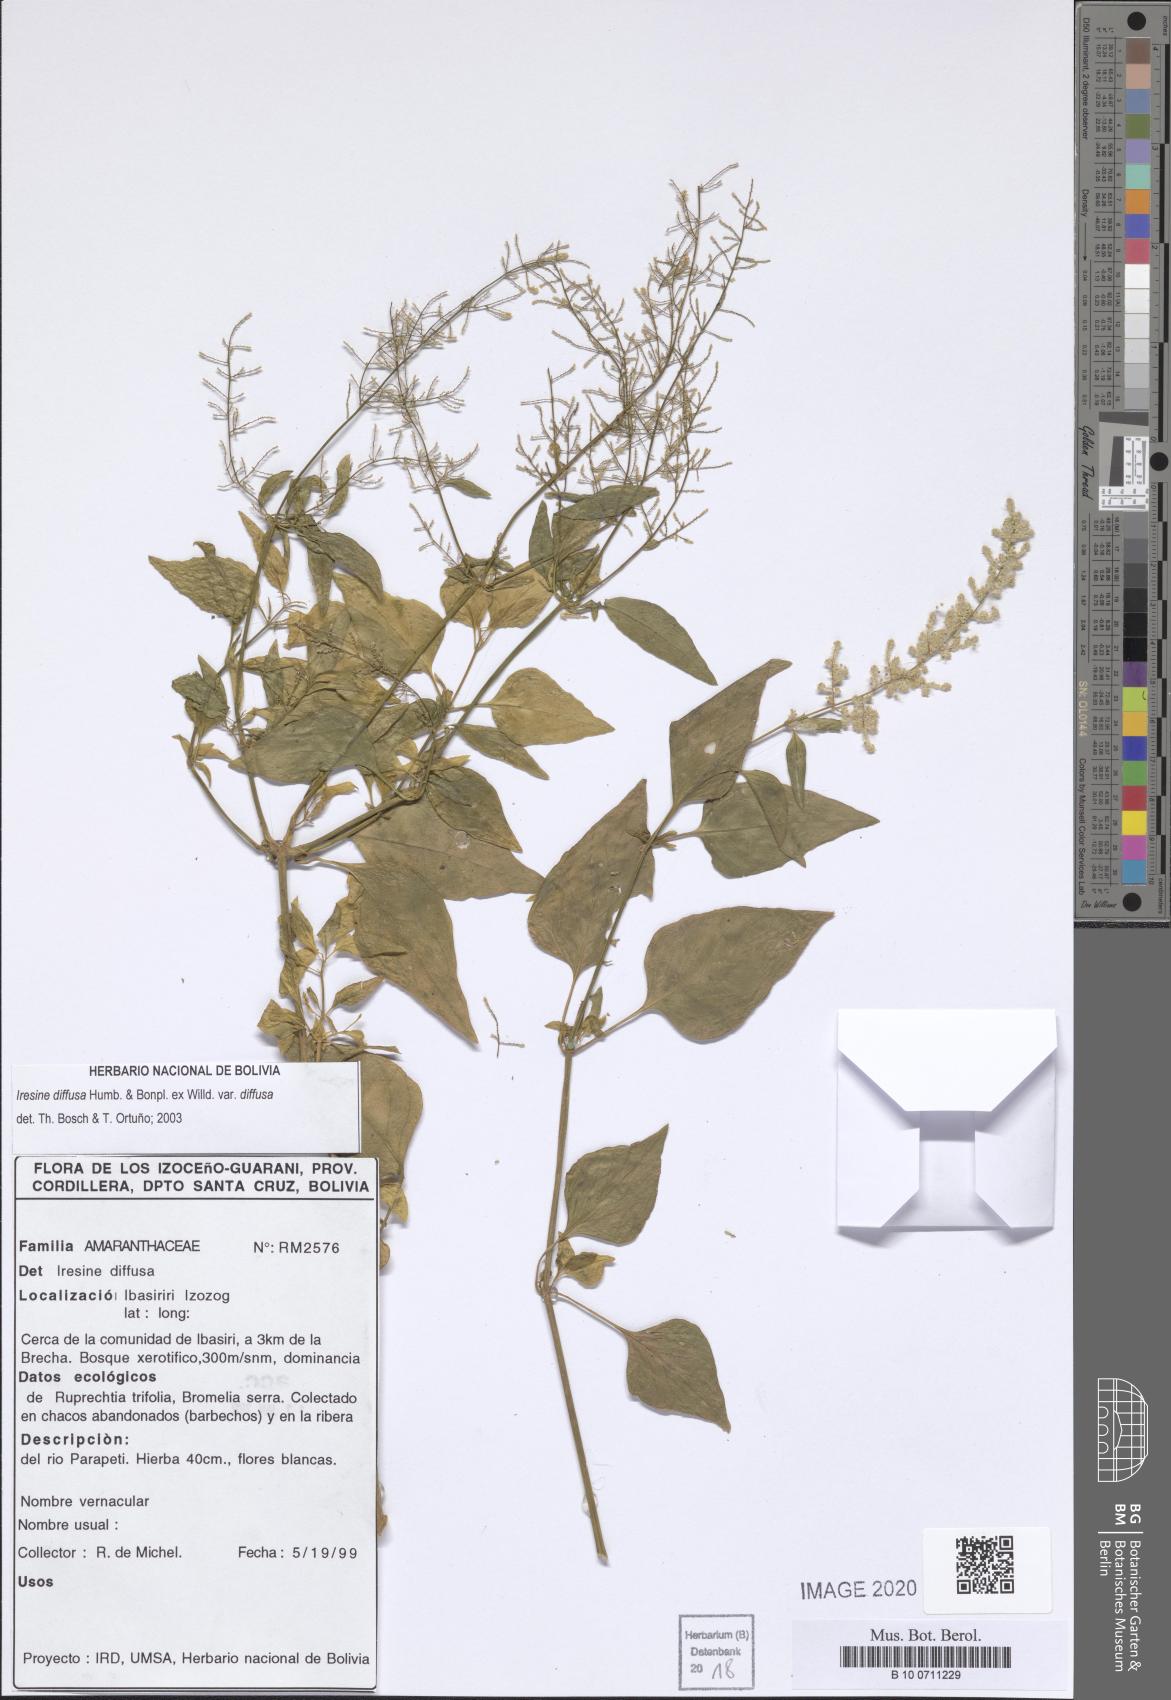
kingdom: Plantae
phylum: Tracheophyta
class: Magnoliopsida
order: Caryophyllales
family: Amaranthaceae
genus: Iresine
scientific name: Iresine diffusa
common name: Juba's-bush
